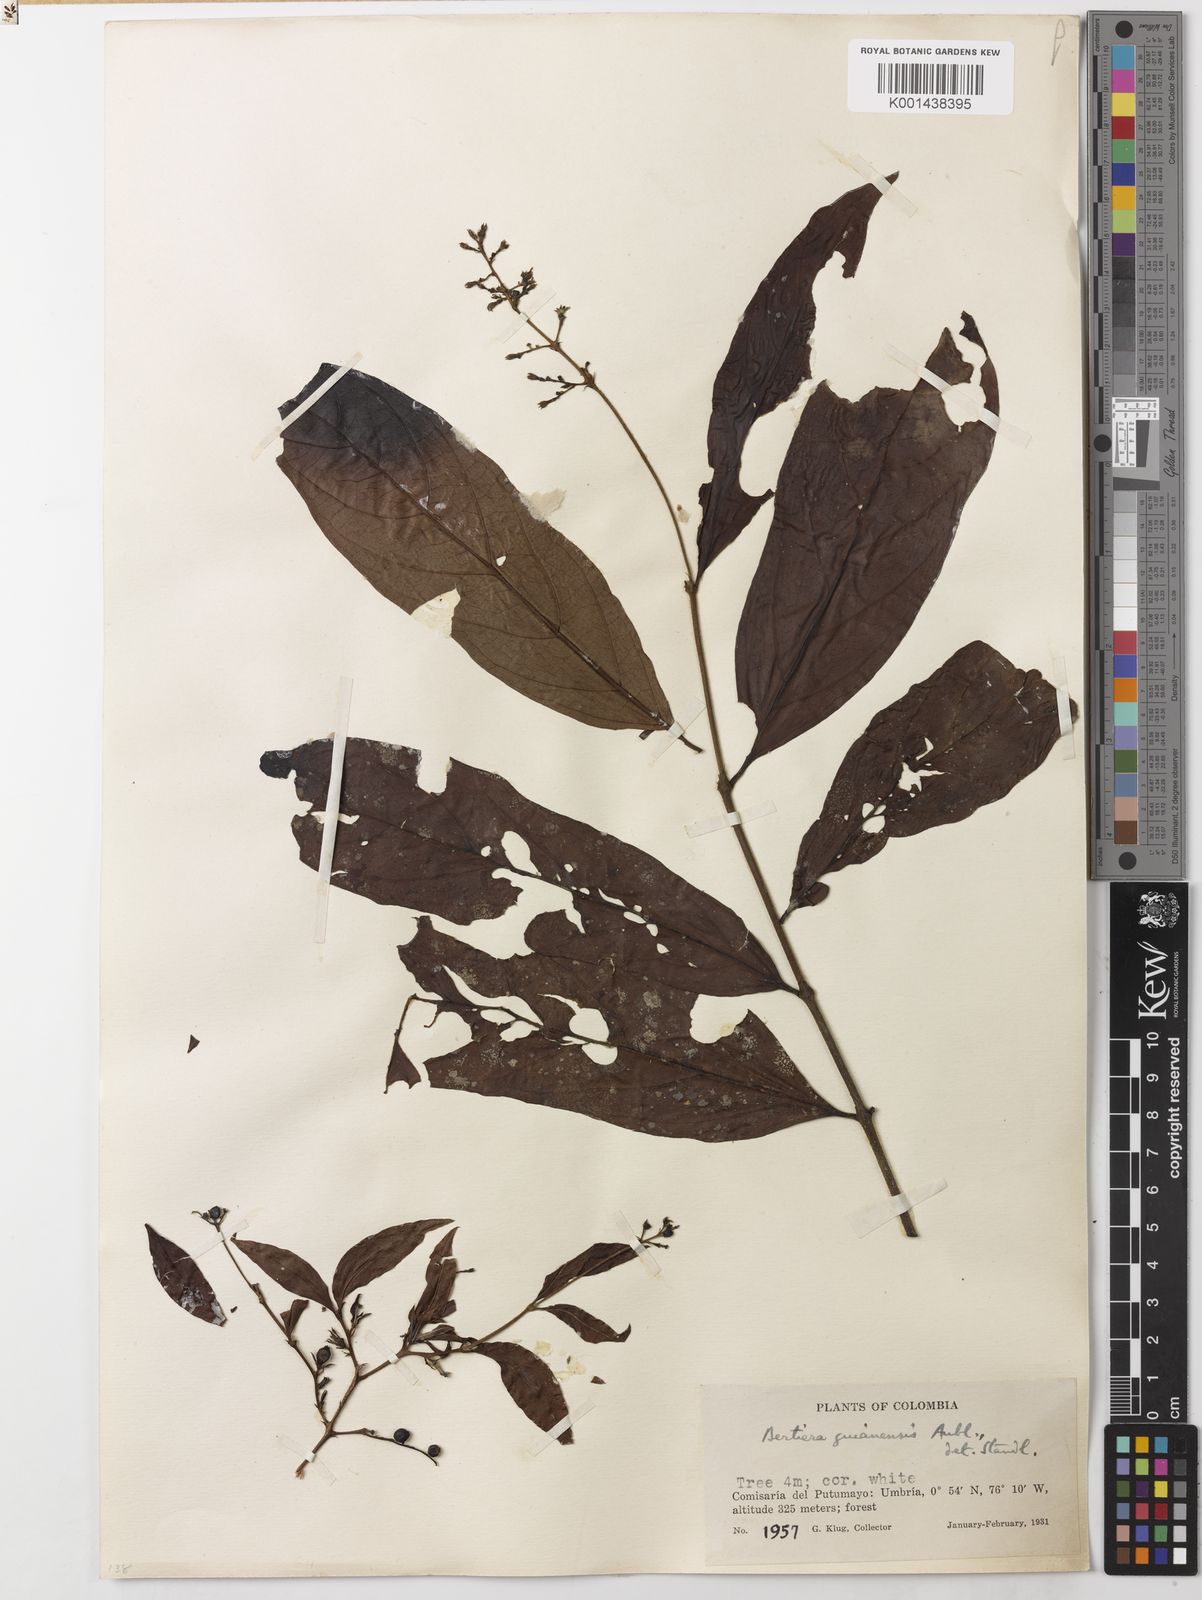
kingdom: Plantae
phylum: Tracheophyta
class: Magnoliopsida
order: Gentianales
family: Rubiaceae
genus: Bertiera
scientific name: Bertiera guianensis
